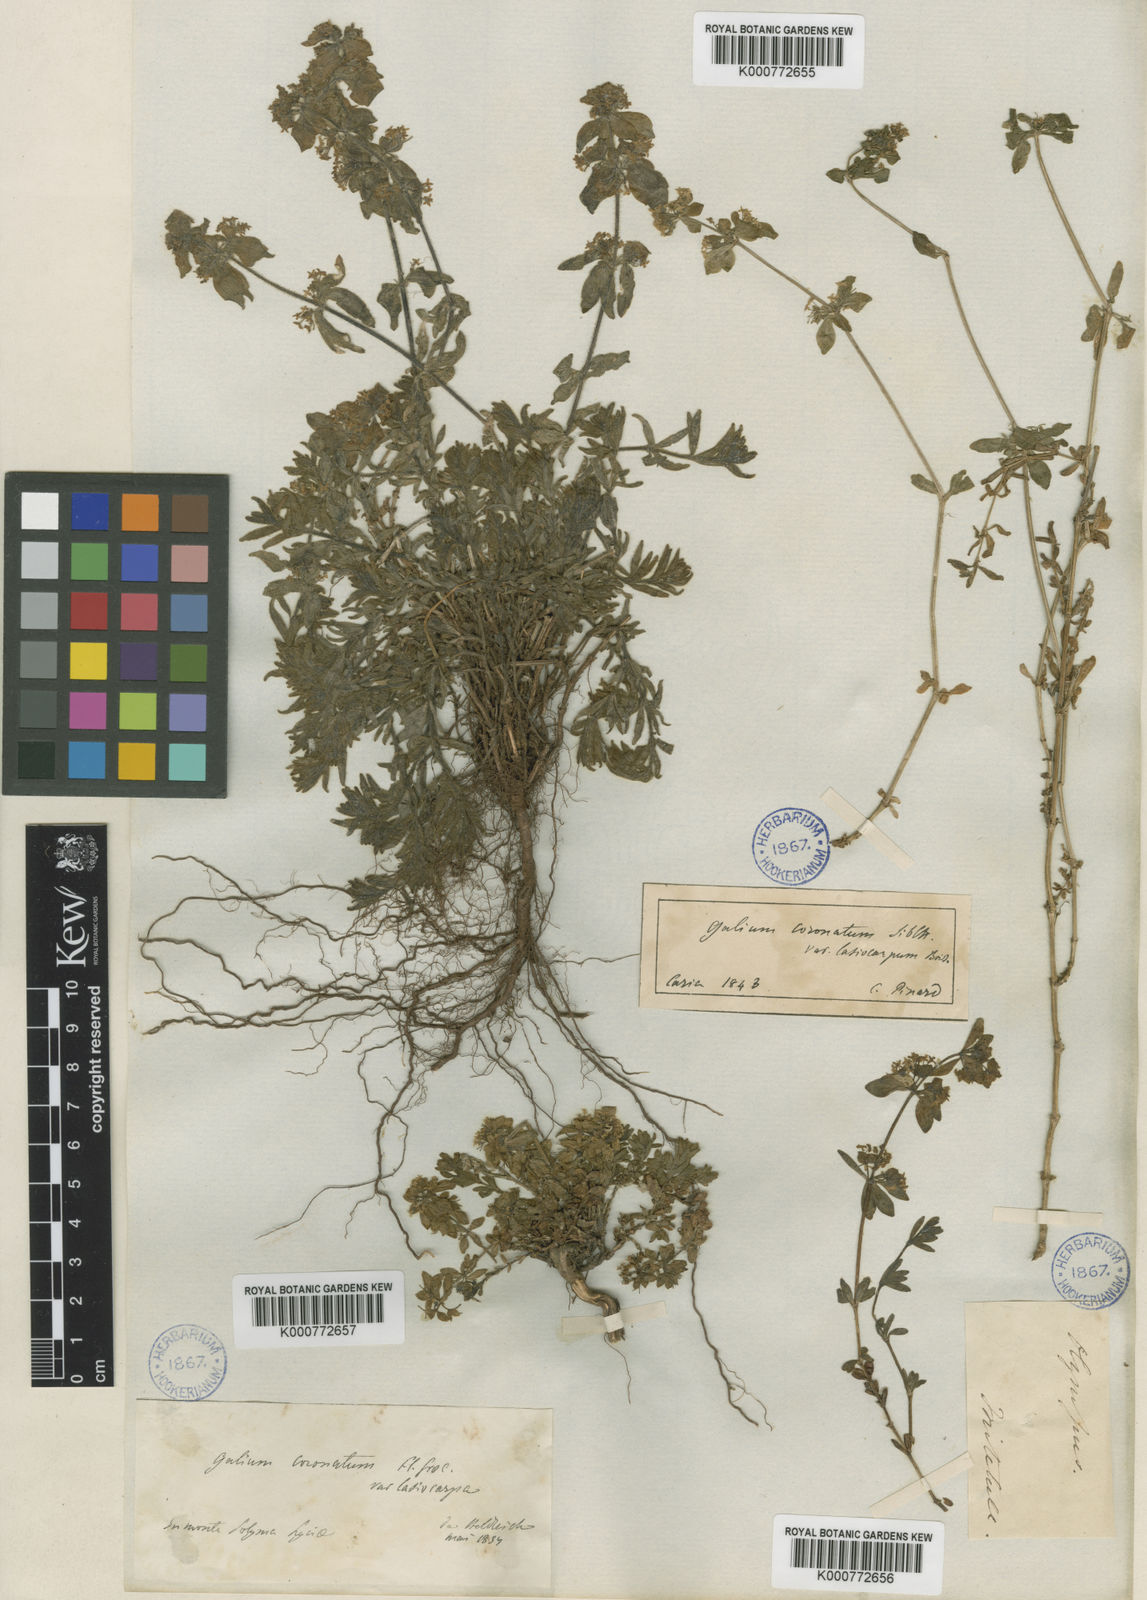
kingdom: Plantae
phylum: Tracheophyta
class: Magnoliopsida
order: Gentianales
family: Rubiaceae
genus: Cruciata
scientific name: Cruciata taurica
